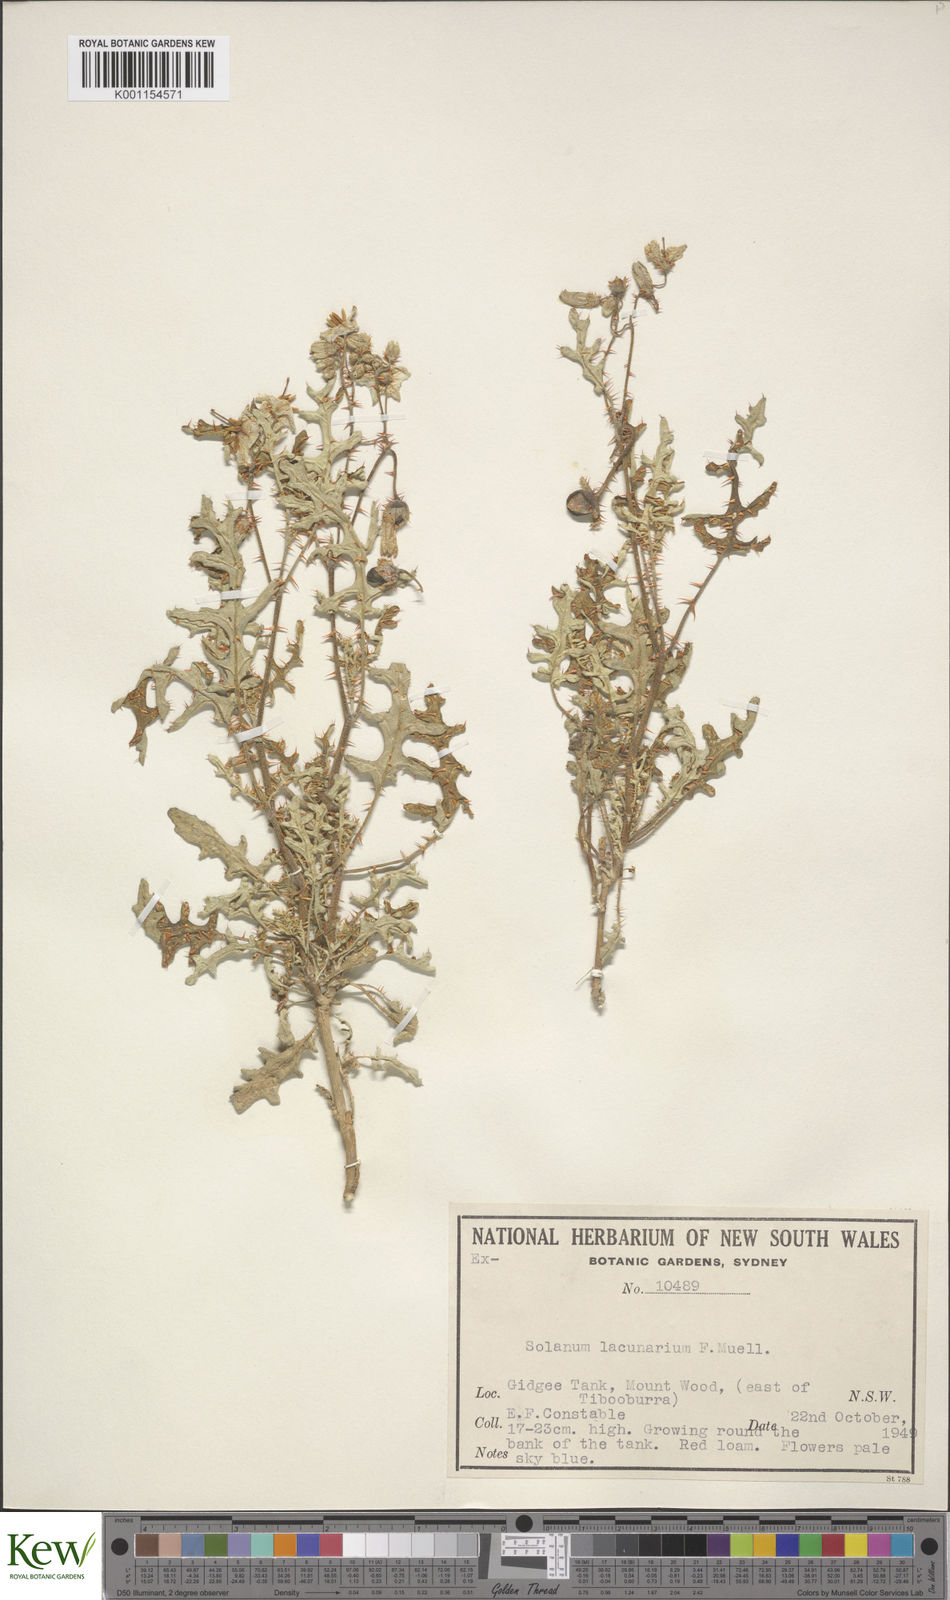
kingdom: Plantae
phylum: Tracheophyta
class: Magnoliopsida
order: Solanales
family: Solanaceae
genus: Solanum
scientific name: Solanum lacunarium
